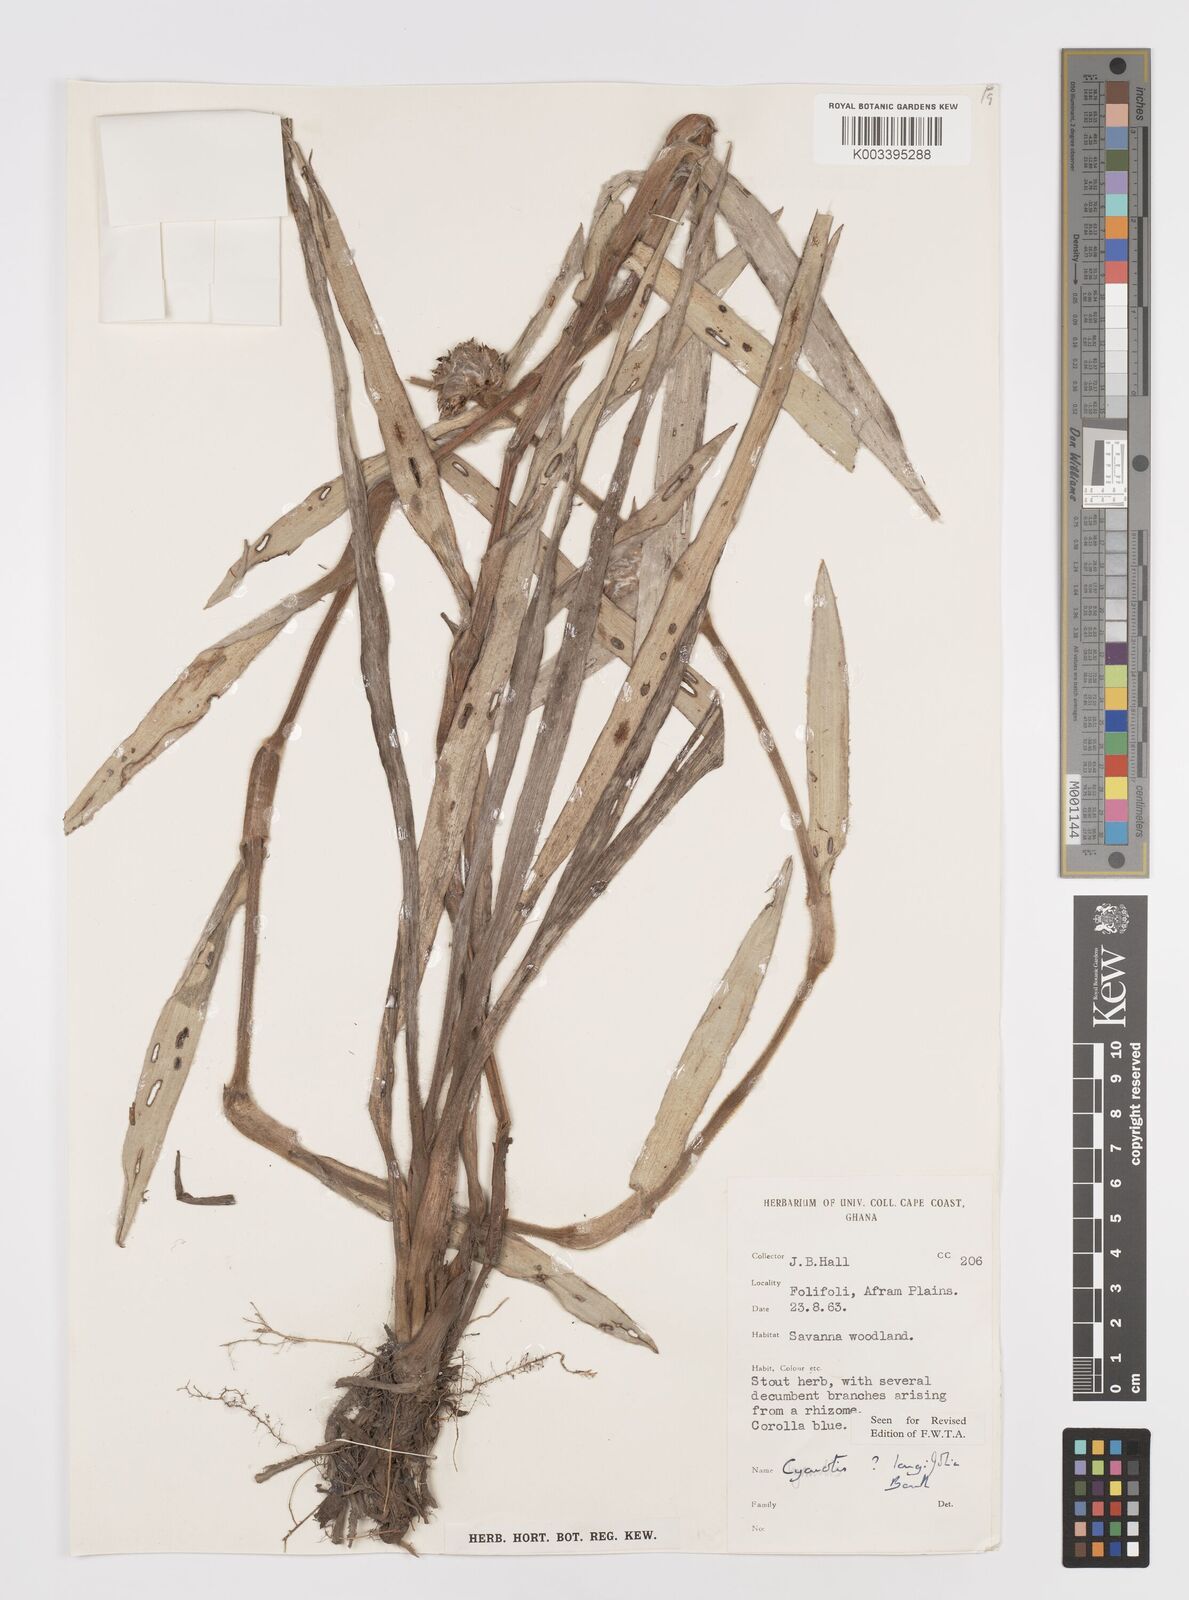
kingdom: Plantae
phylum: Tracheophyta
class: Liliopsida
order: Commelinales
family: Commelinaceae
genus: Cyanotis
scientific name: Cyanotis longifolia
